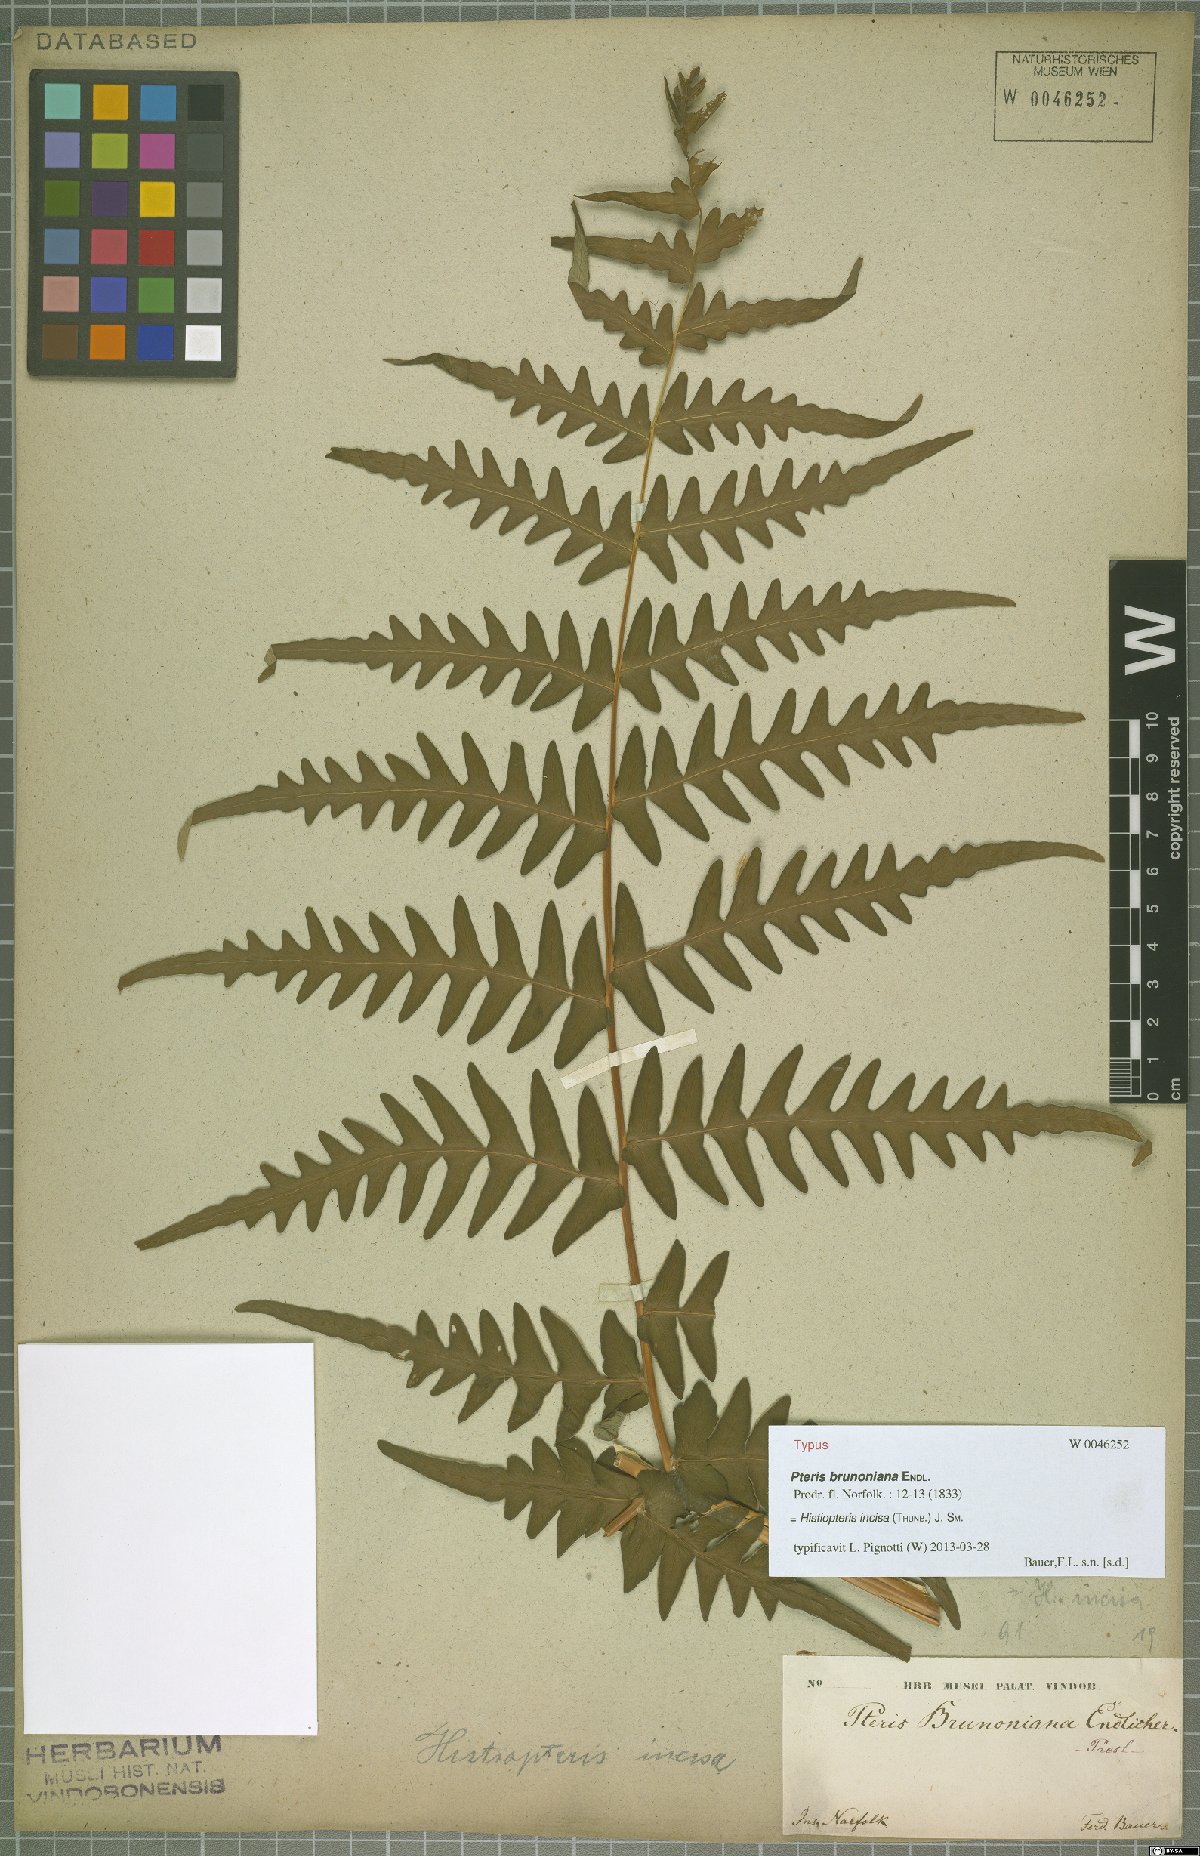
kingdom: Plantae
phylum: Tracheophyta
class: Polypodiopsida
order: Polypodiales
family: Dennstaedtiaceae
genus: Histiopteris
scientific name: Histiopteris incisa
